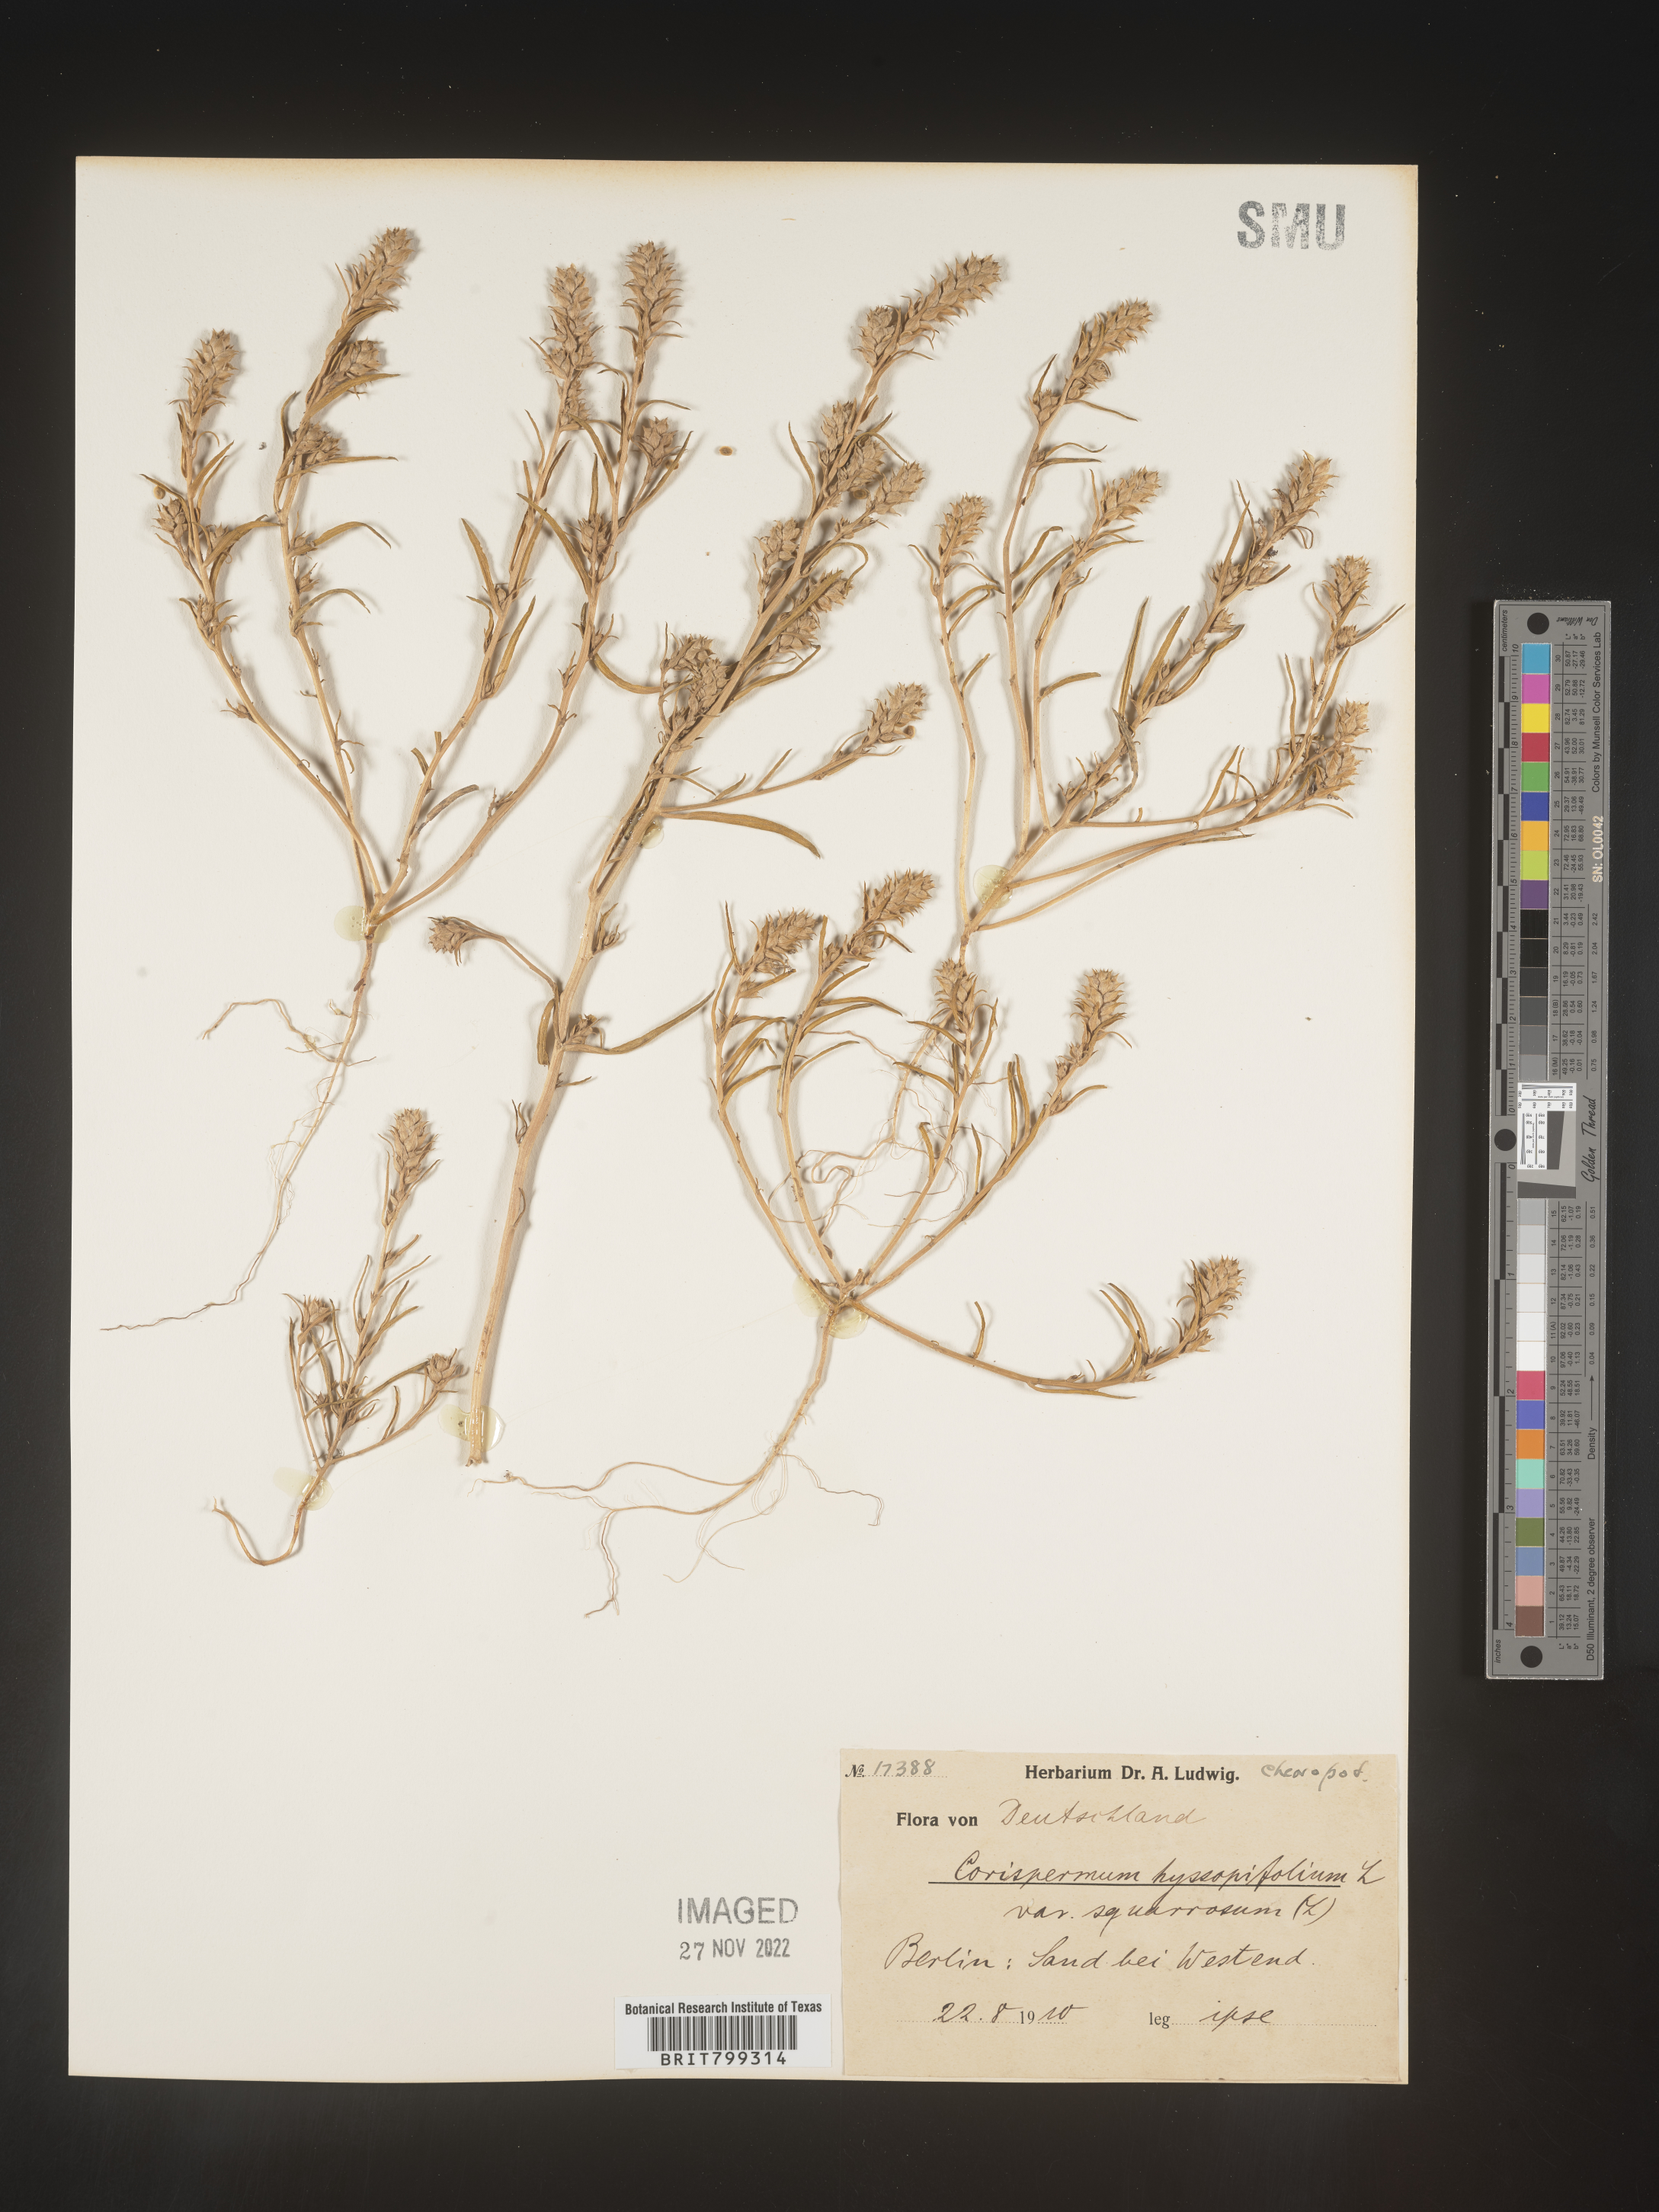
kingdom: Plantae
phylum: Tracheophyta
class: Magnoliopsida
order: Caryophyllales
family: Amaranthaceae
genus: Corispermum
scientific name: Corispermum
